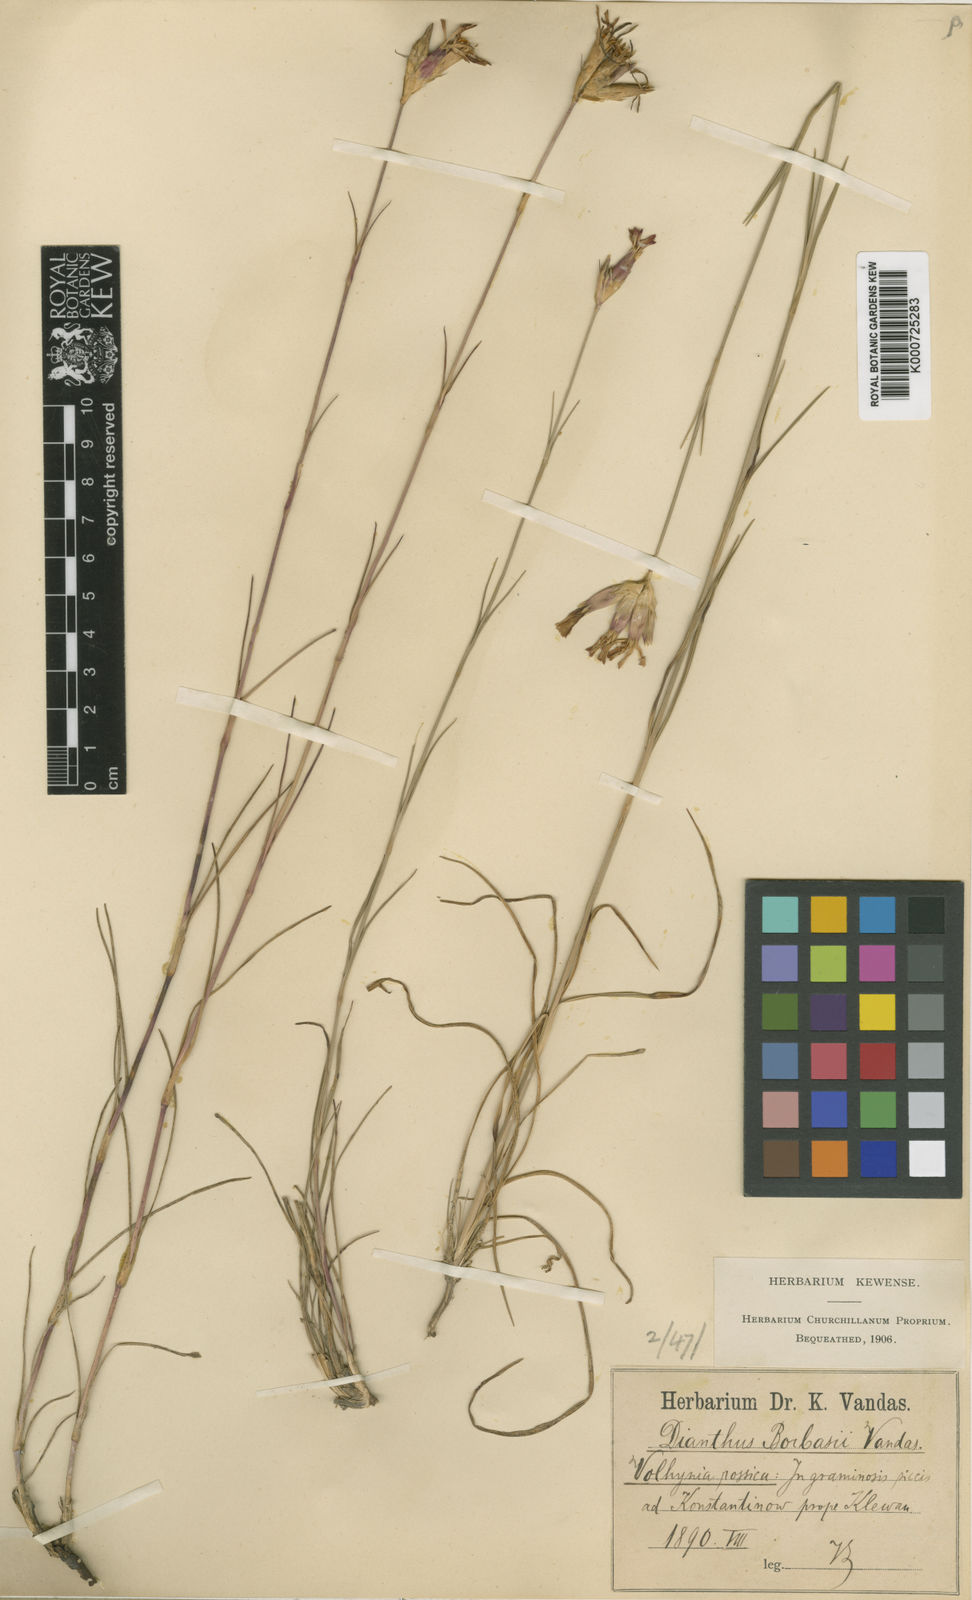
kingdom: Plantae
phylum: Tracheophyta
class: Magnoliopsida
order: Caryophyllales
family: Caryophyllaceae
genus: Dianthus
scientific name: Dianthus borbasii
